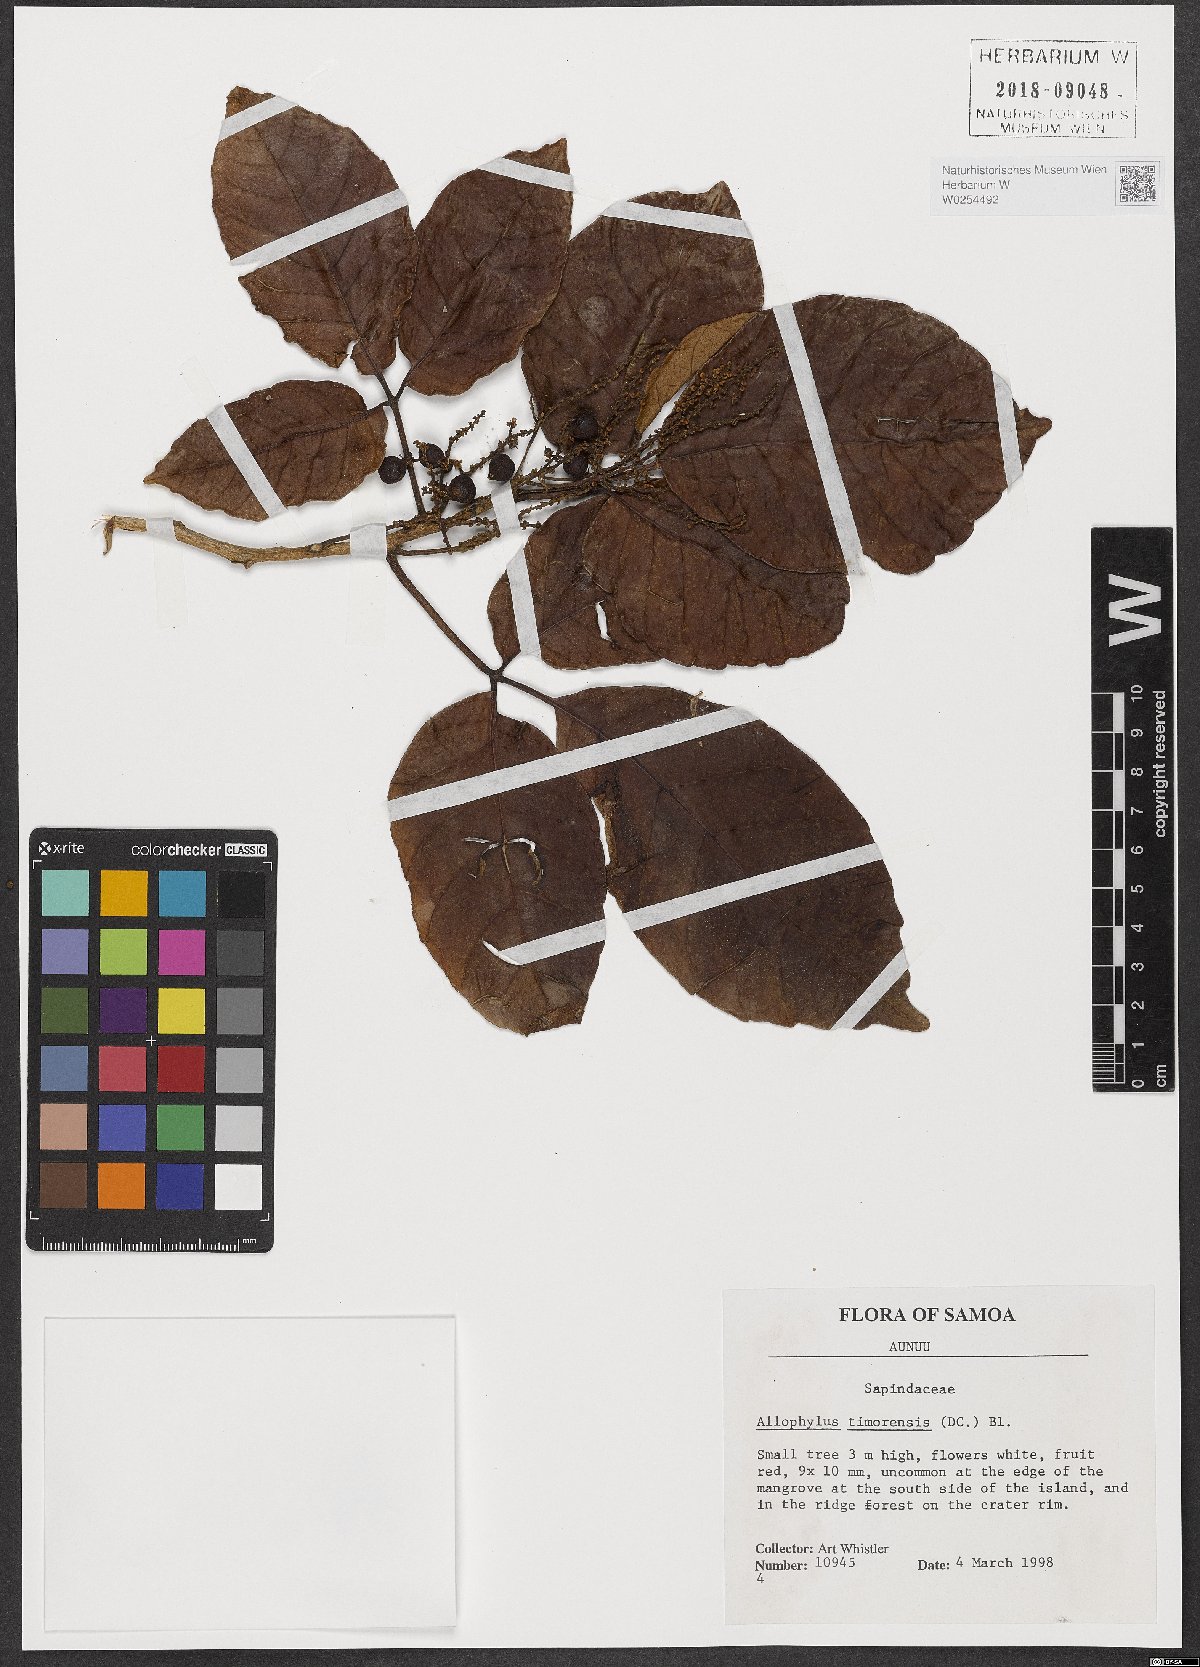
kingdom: Plantae
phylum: Tracheophyta
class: Magnoliopsida
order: Sapindales
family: Sapindaceae
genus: Allophylus
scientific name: Allophylus timorensis
